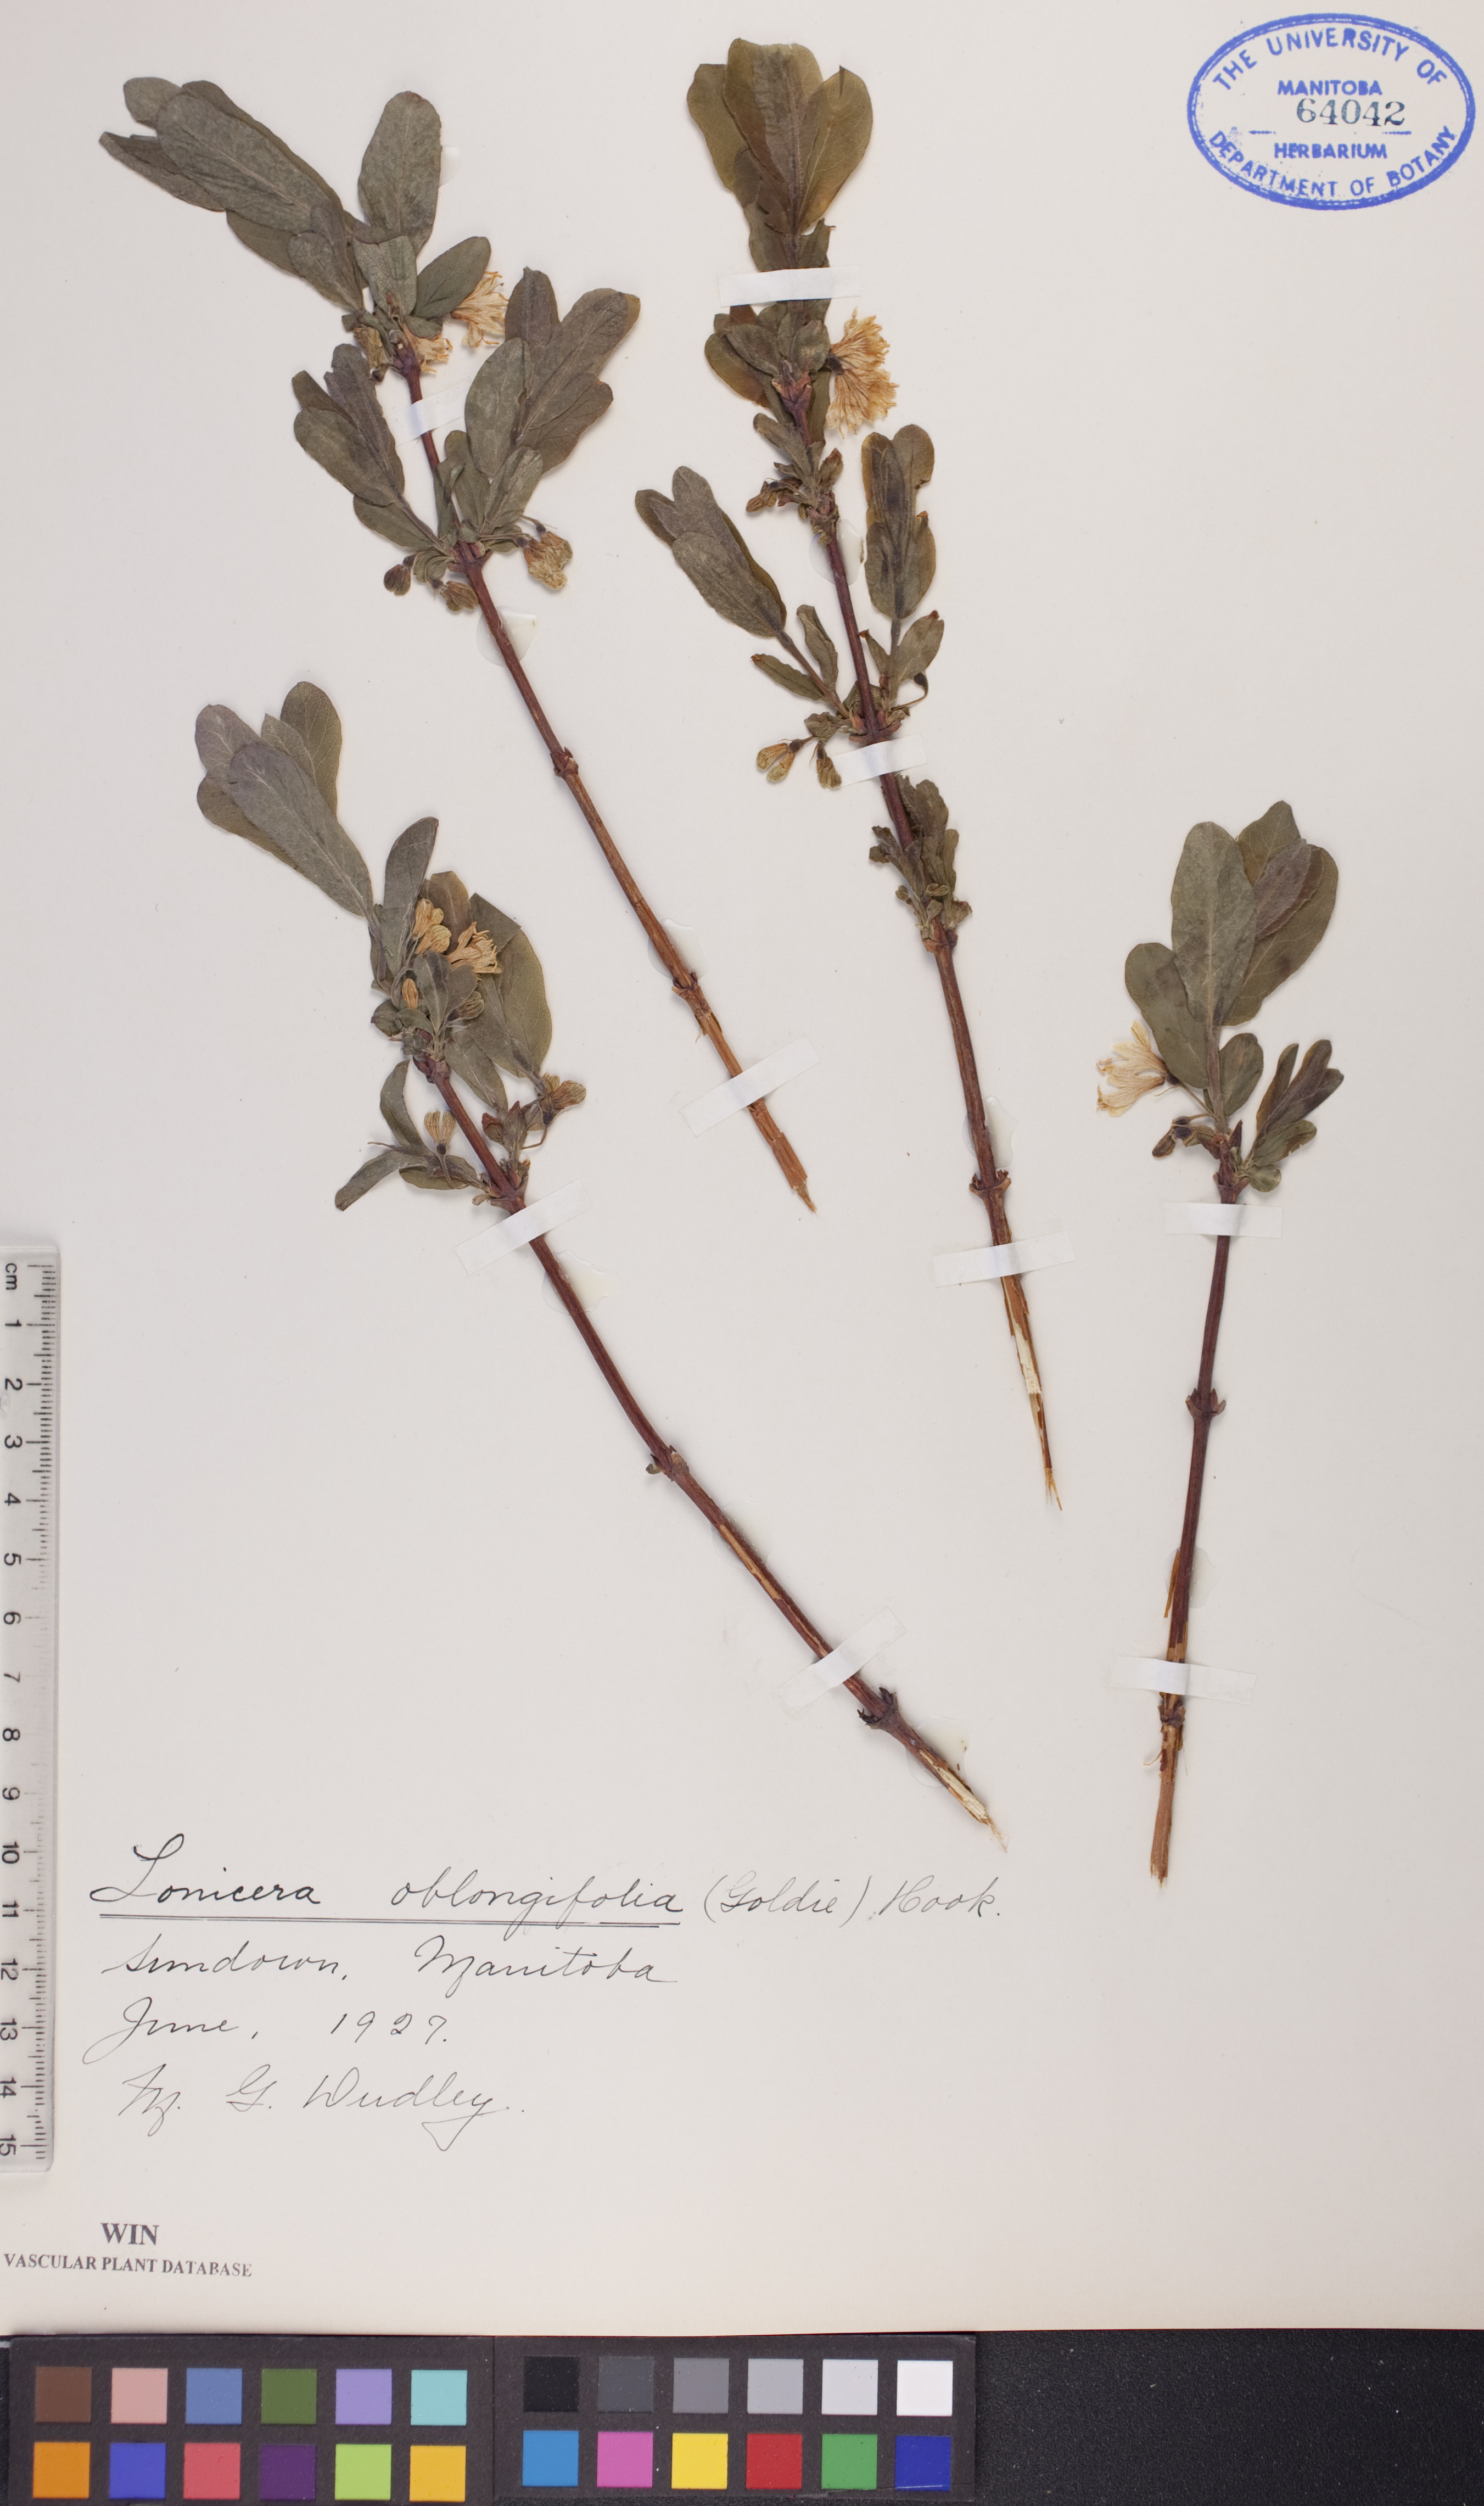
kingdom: Plantae
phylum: Tracheophyta
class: Magnoliopsida
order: Dipsacales
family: Caprifoliaceae
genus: Lonicera
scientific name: Lonicera oblongifolia
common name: Swamp fly honeysuckle
